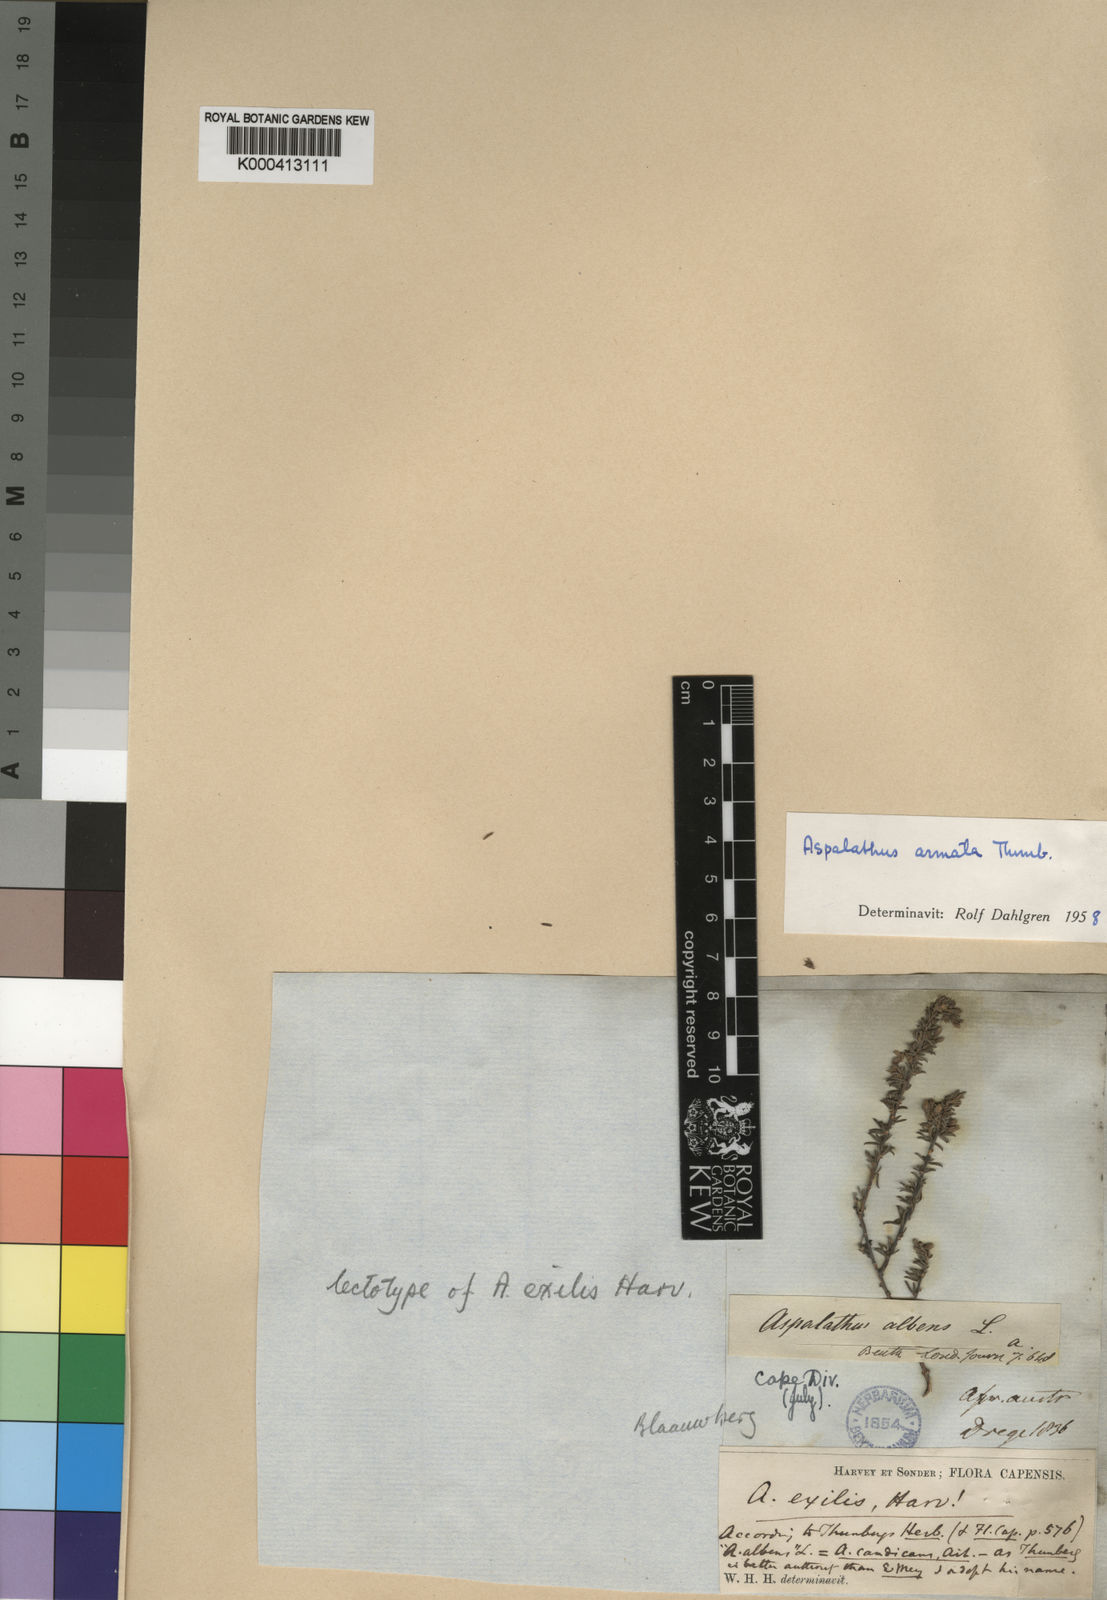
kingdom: Plantae
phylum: Tracheophyta
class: Magnoliopsida
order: Fabales
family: Fabaceae
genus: Aspalathus
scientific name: Aspalathus albens
